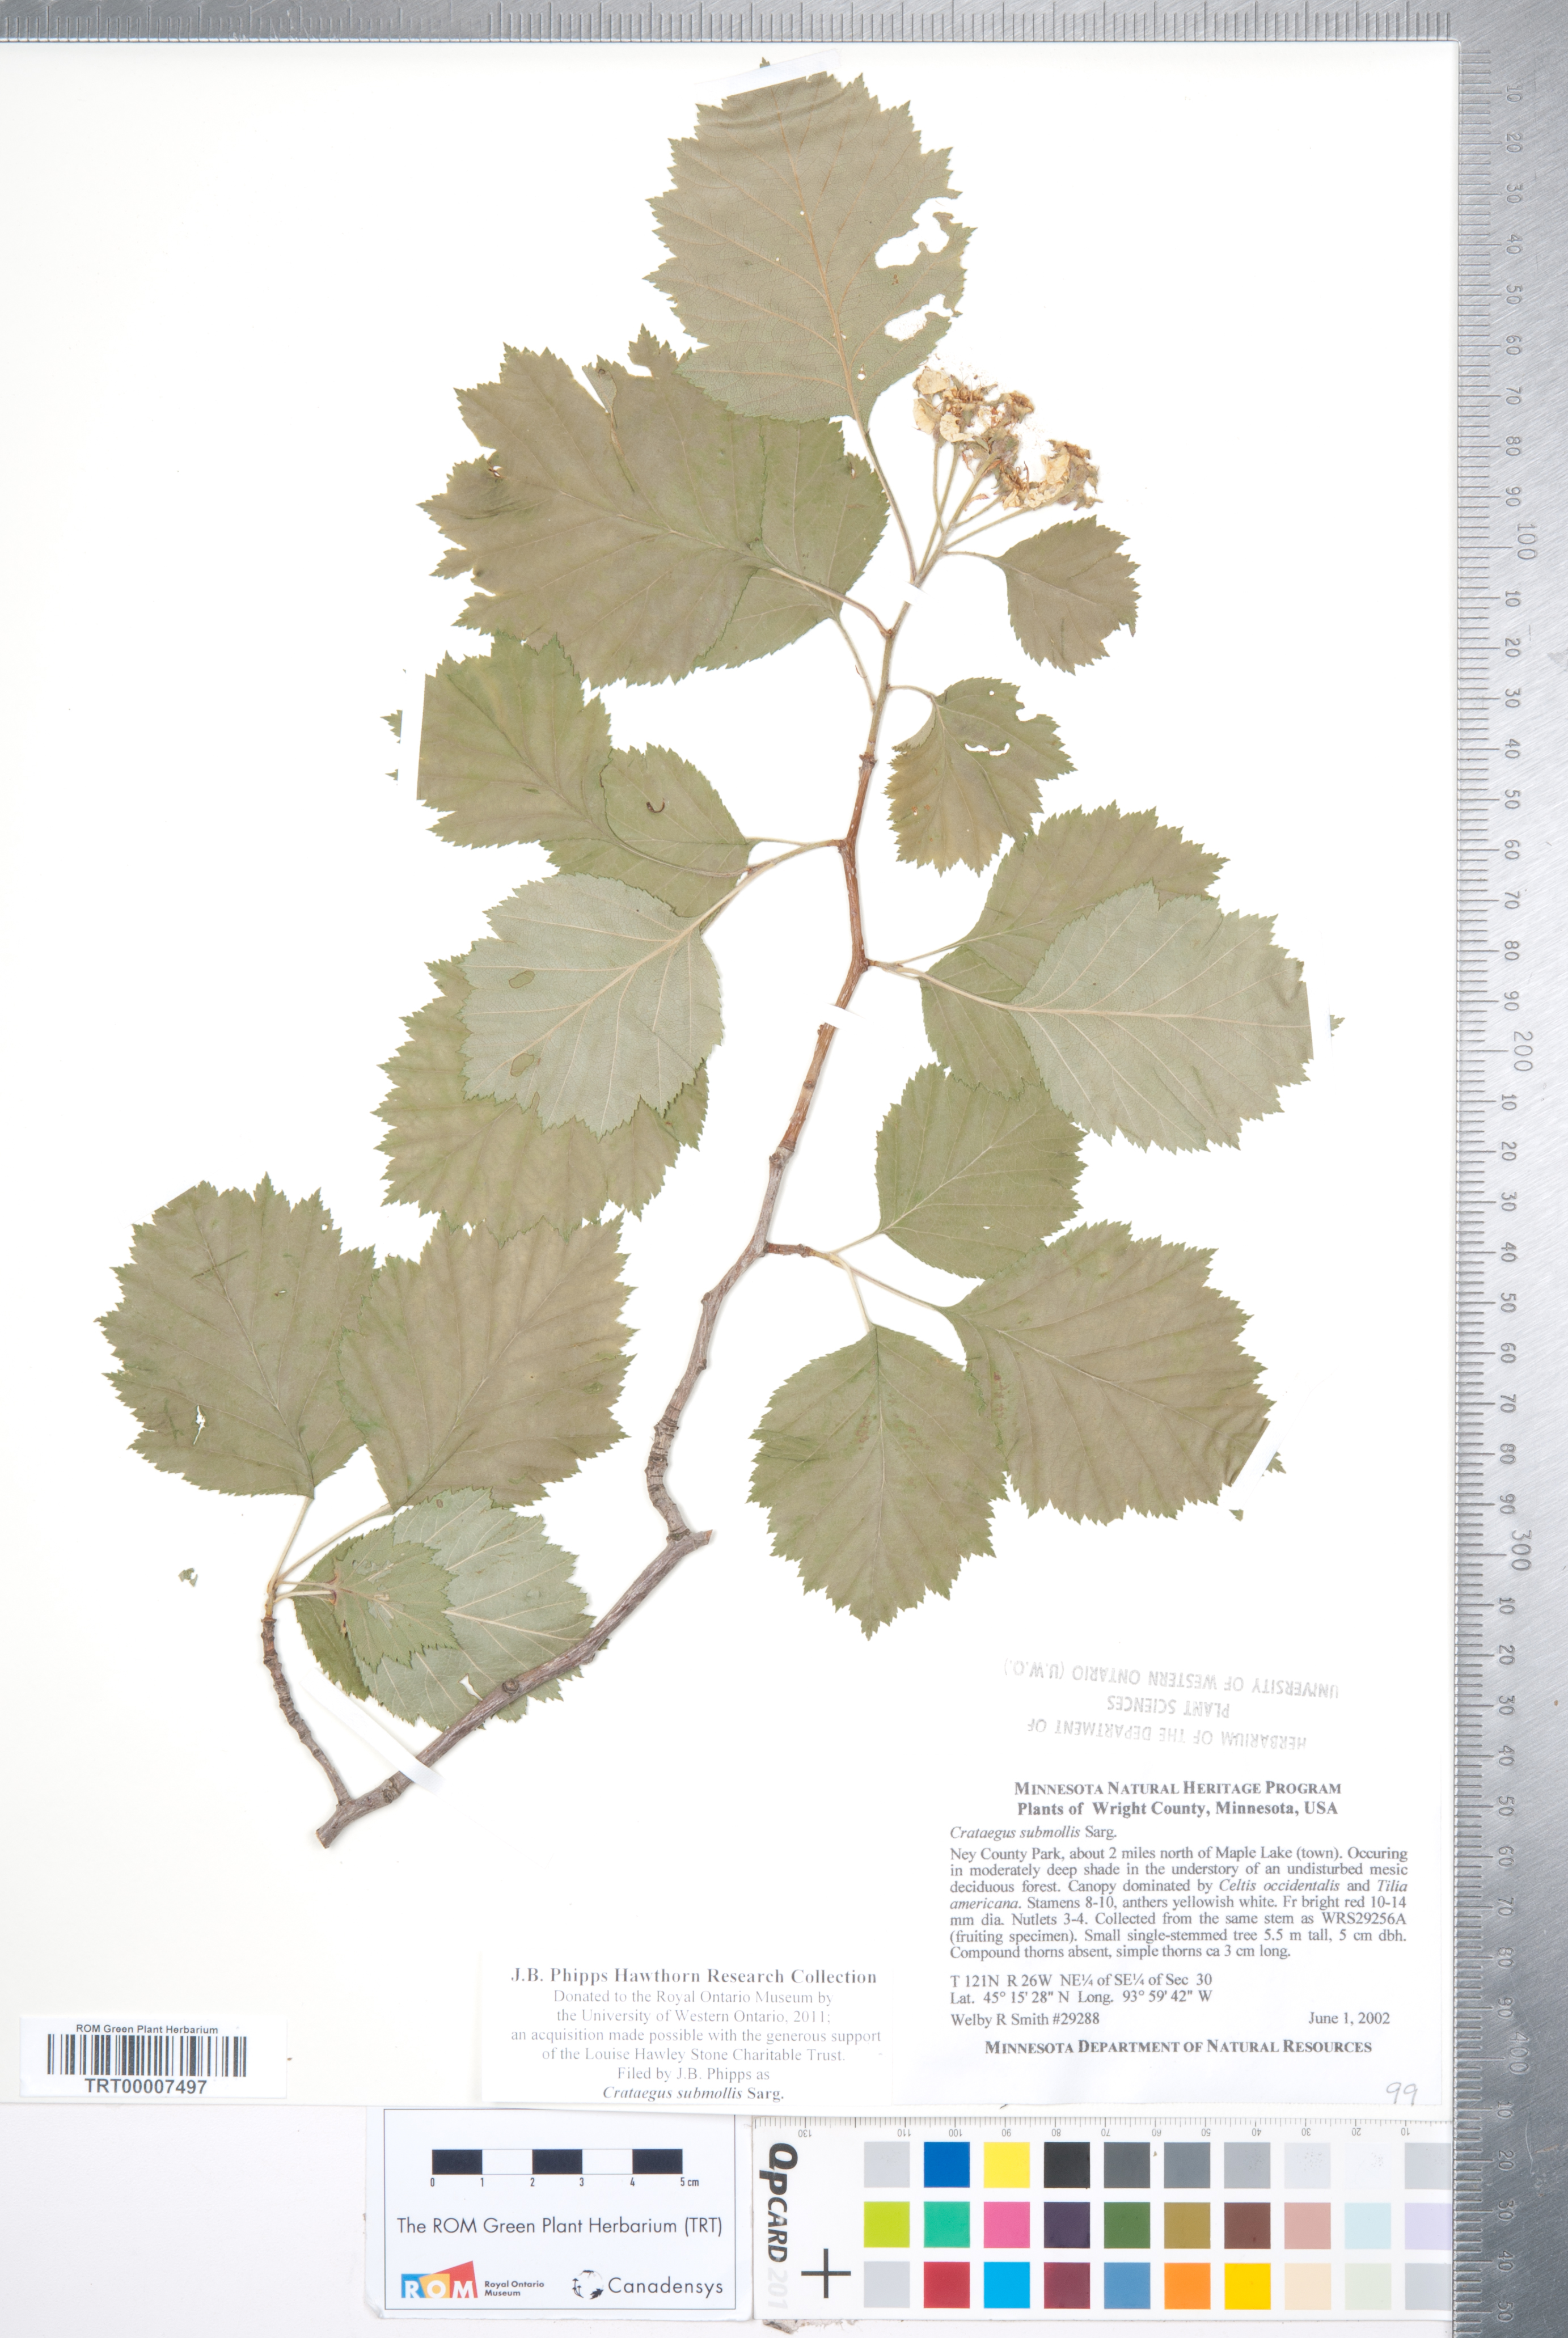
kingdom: Plantae
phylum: Tracheophyta
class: Magnoliopsida
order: Rosales
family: Rosaceae
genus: Crataegus
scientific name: Crataegus submollis
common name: Hairy cockspurthorn
